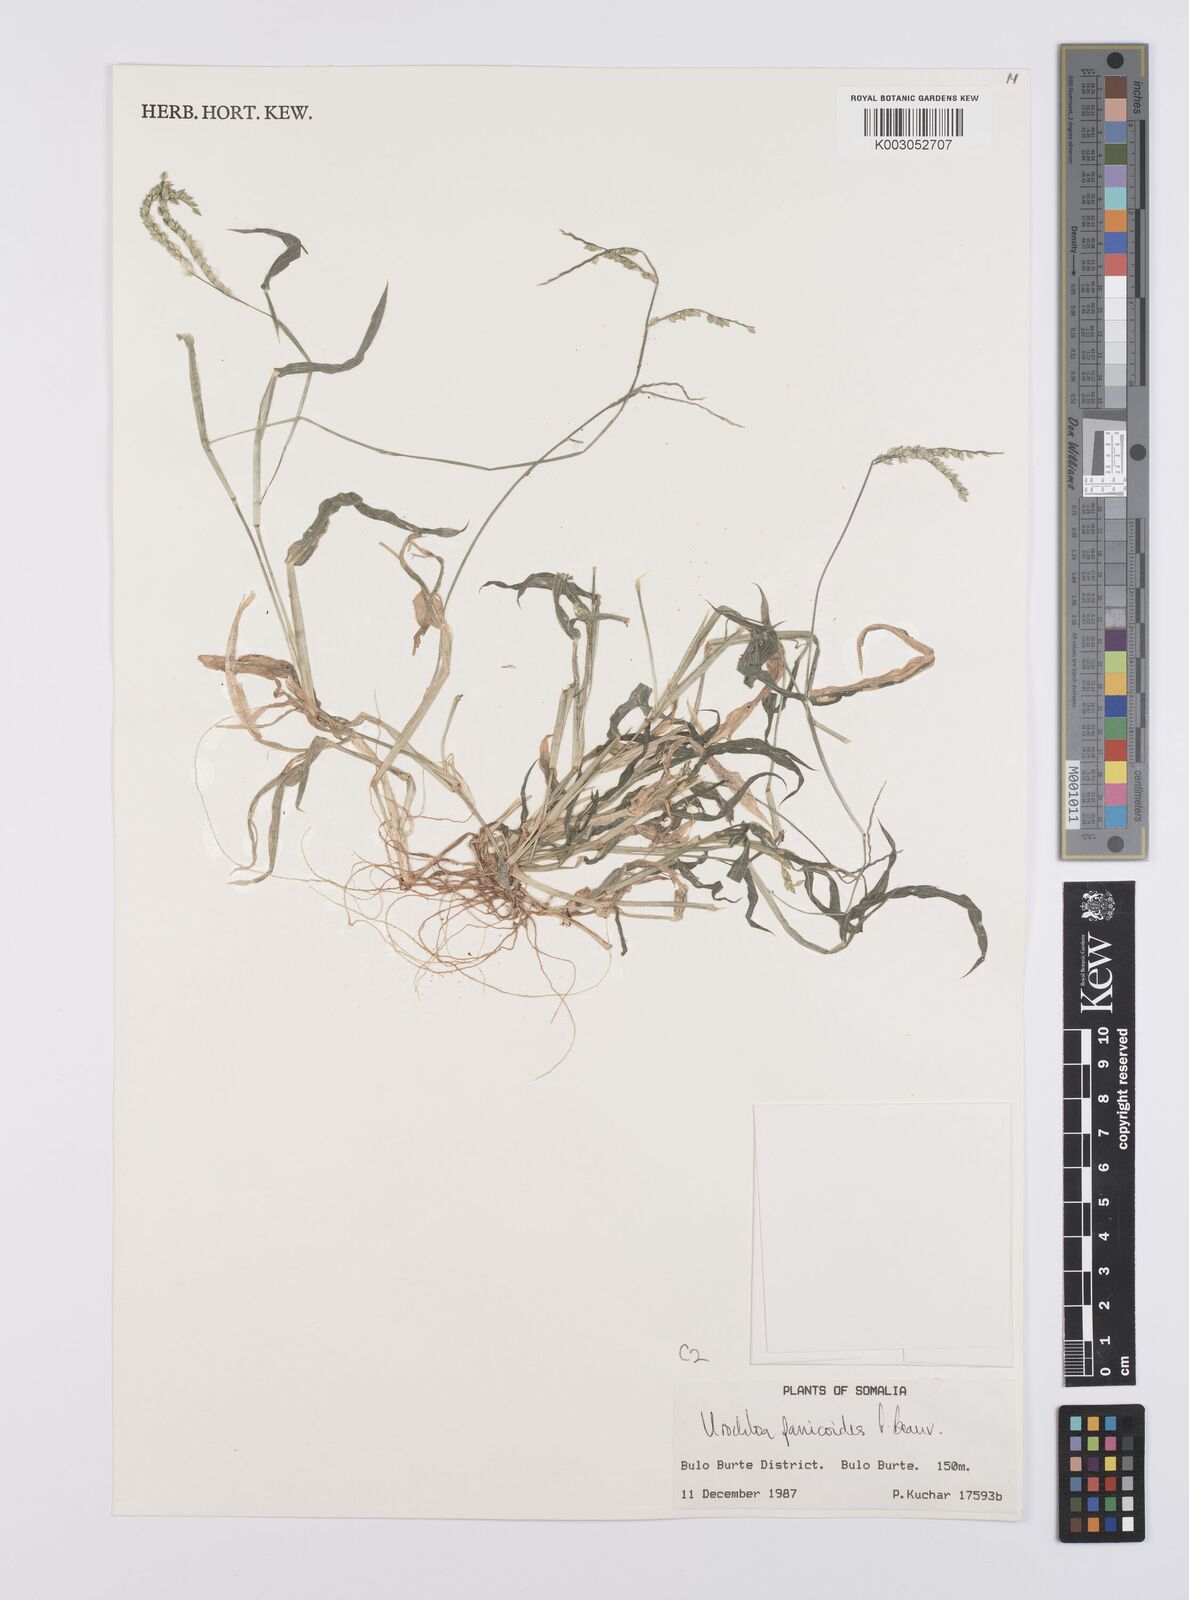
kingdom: Plantae
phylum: Tracheophyta
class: Liliopsida
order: Poales
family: Poaceae
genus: Urochloa
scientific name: Urochloa panicoides
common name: Sharp-flowered signal-grass
